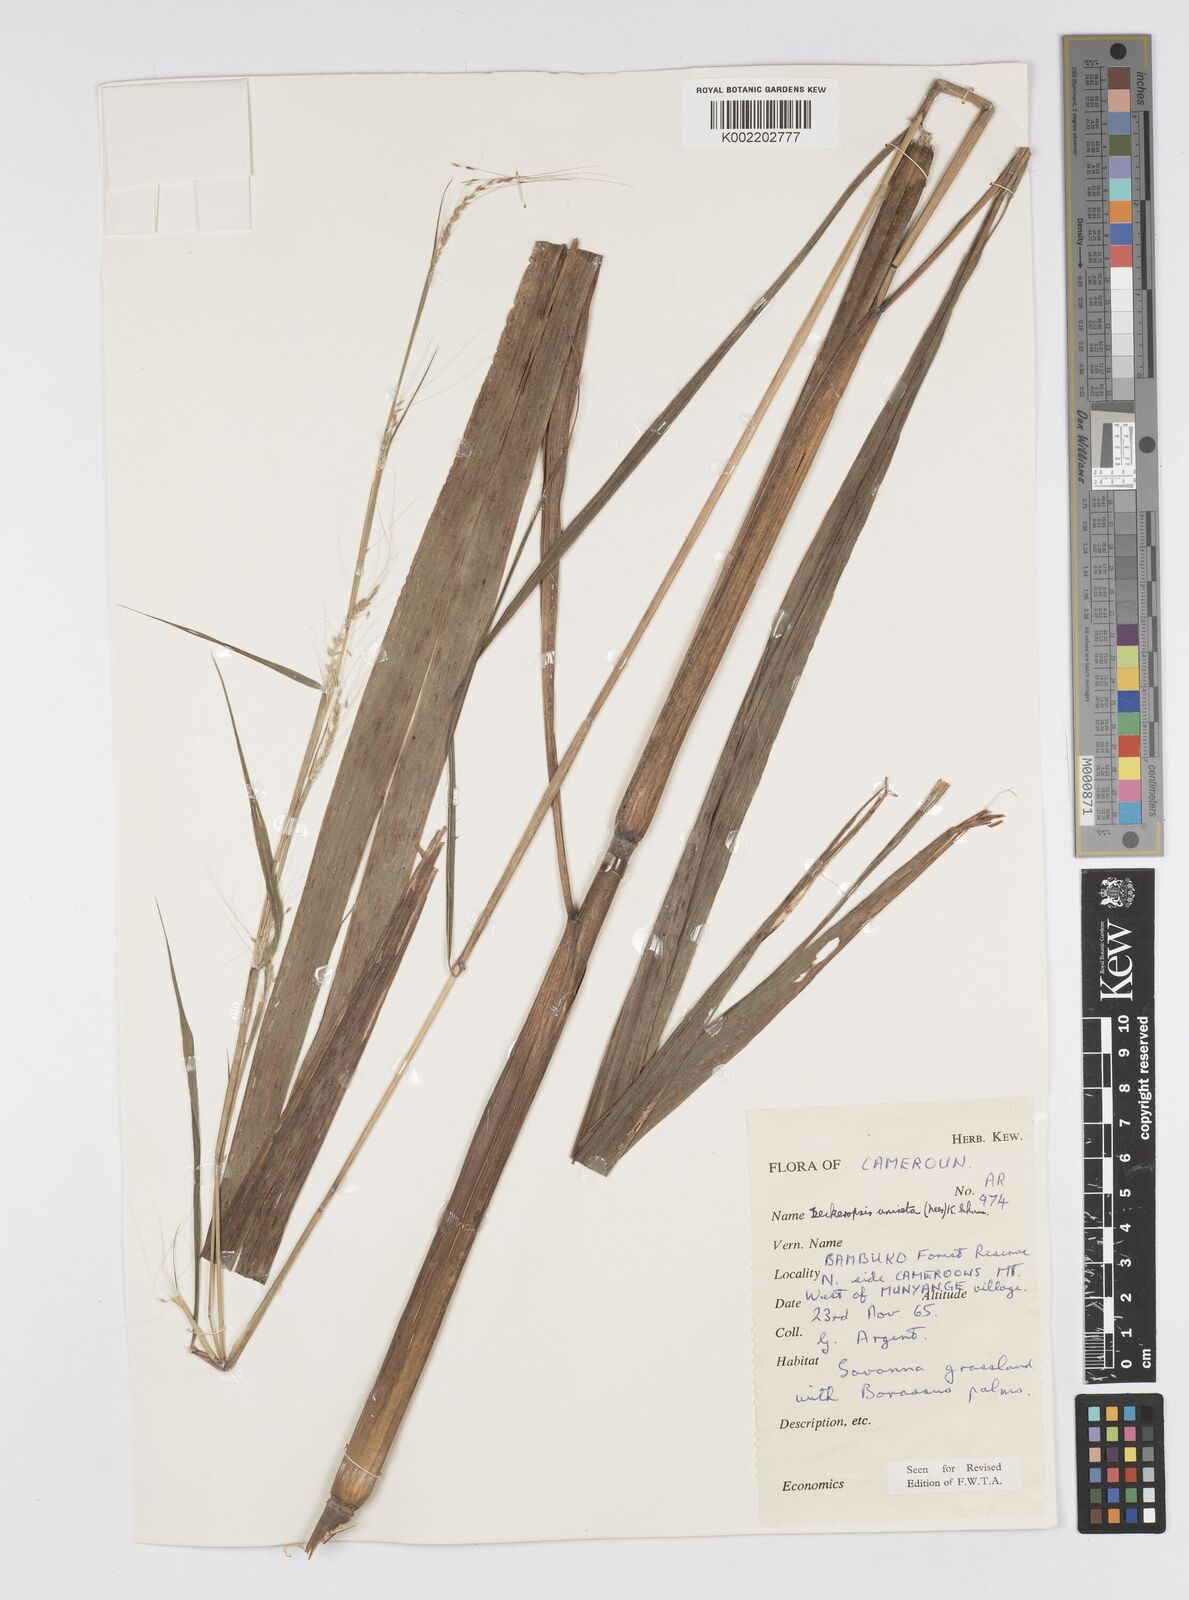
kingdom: Plantae
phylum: Tracheophyta
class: Liliopsida
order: Poales
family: Poaceae
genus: Cenchrus
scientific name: Cenchrus unisetus
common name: Natal grass
